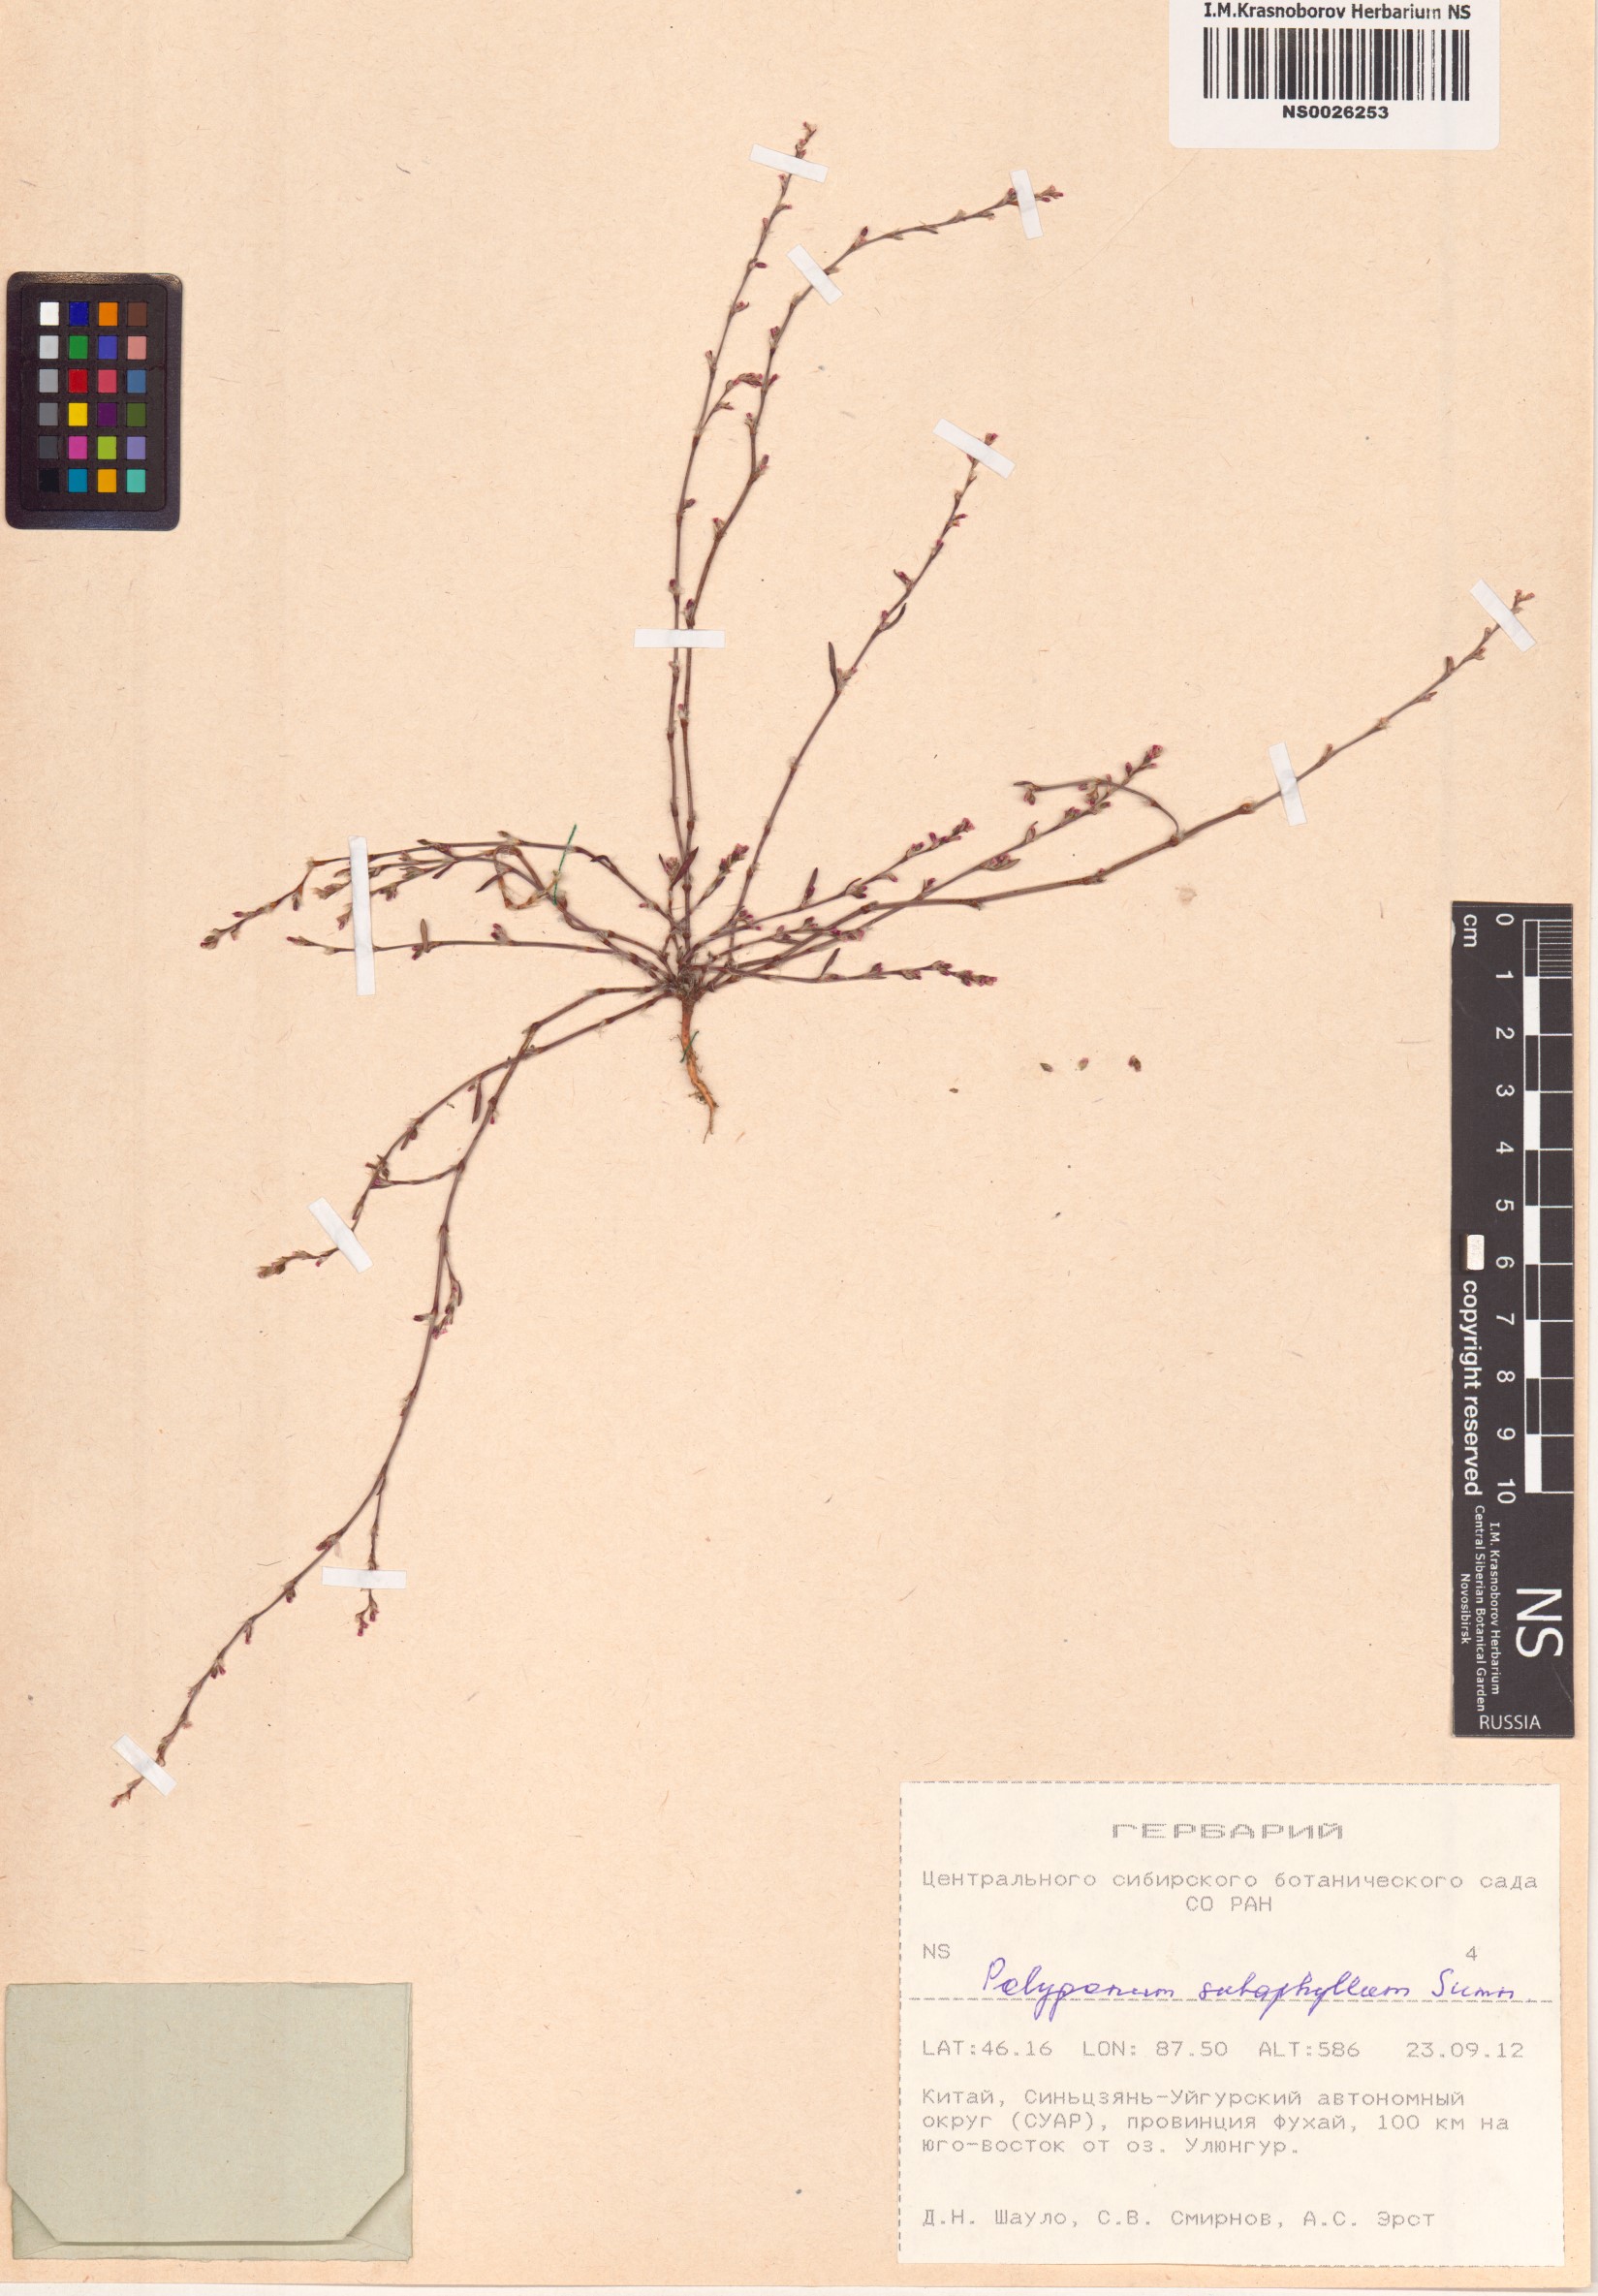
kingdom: Plantae
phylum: Tracheophyta
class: Magnoliopsida
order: Caryophyllales
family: Polygonaceae
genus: Polygonum
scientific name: Polygonum subaphyllum
